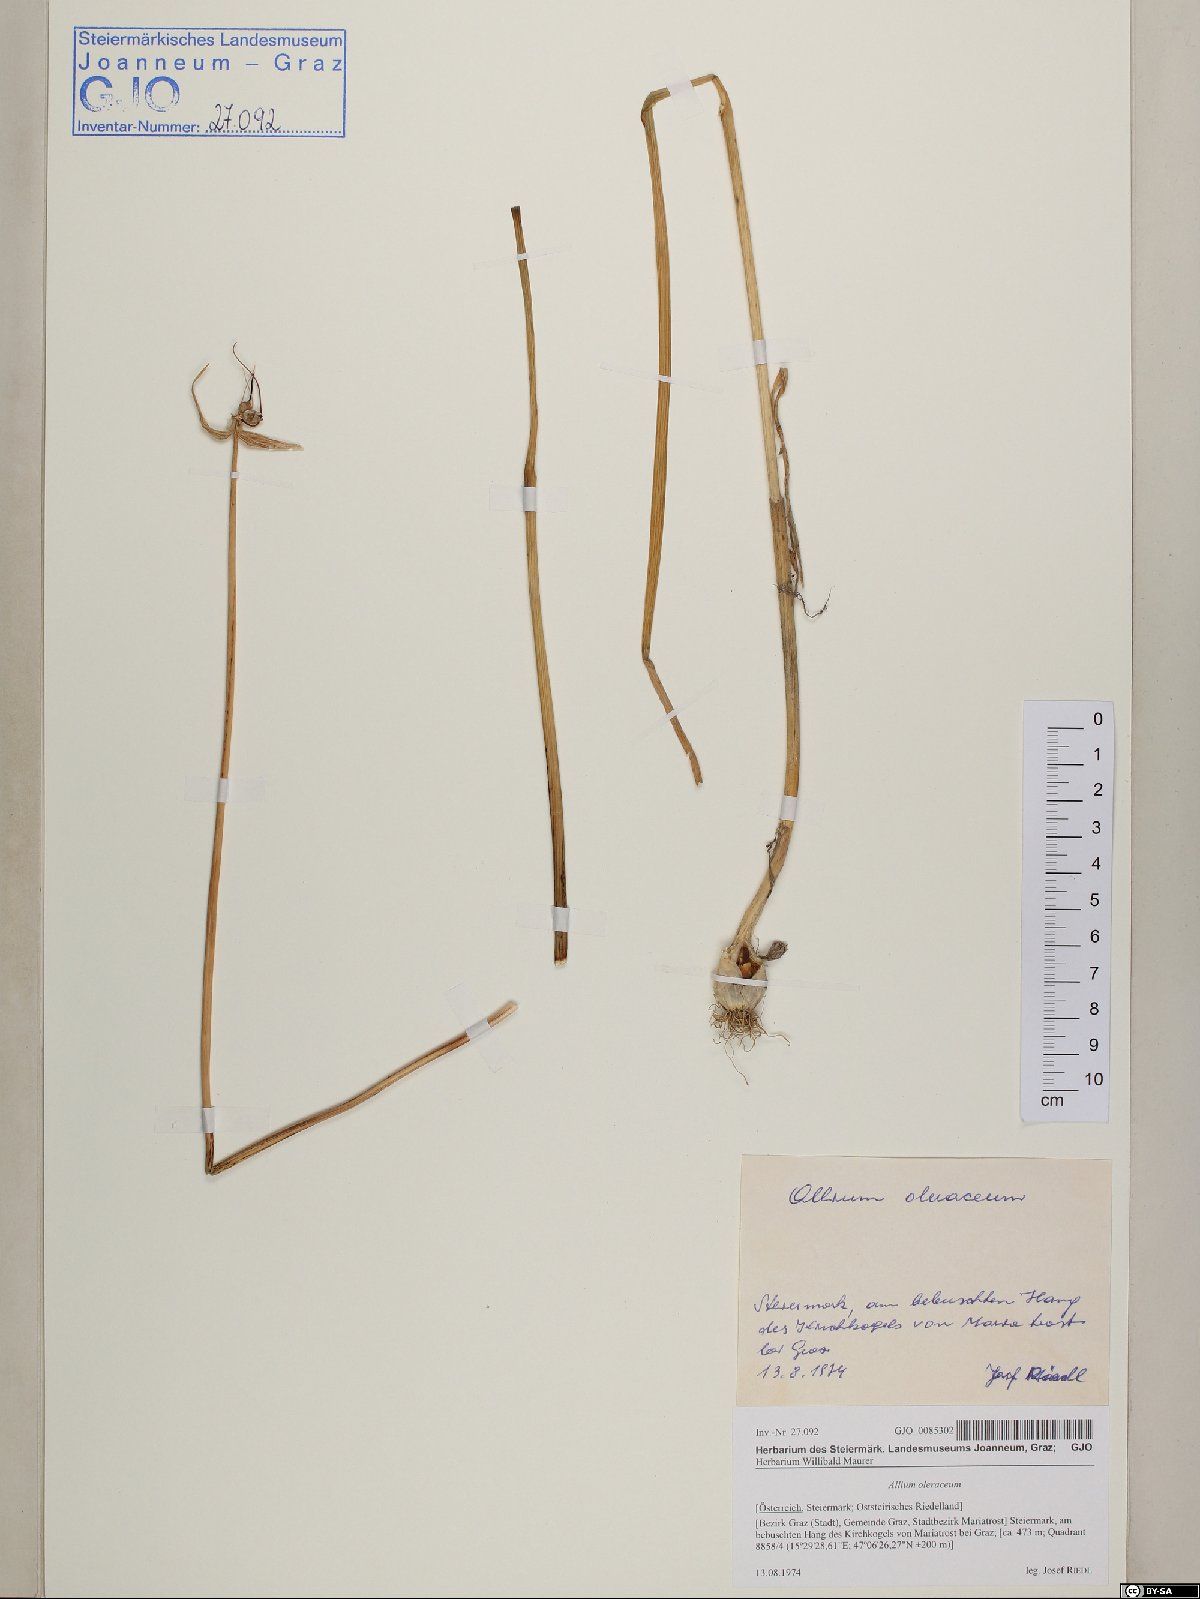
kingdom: Plantae
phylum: Tracheophyta
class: Liliopsida
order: Asparagales
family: Amaryllidaceae
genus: Allium
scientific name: Allium oleraceum
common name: Field garlic
